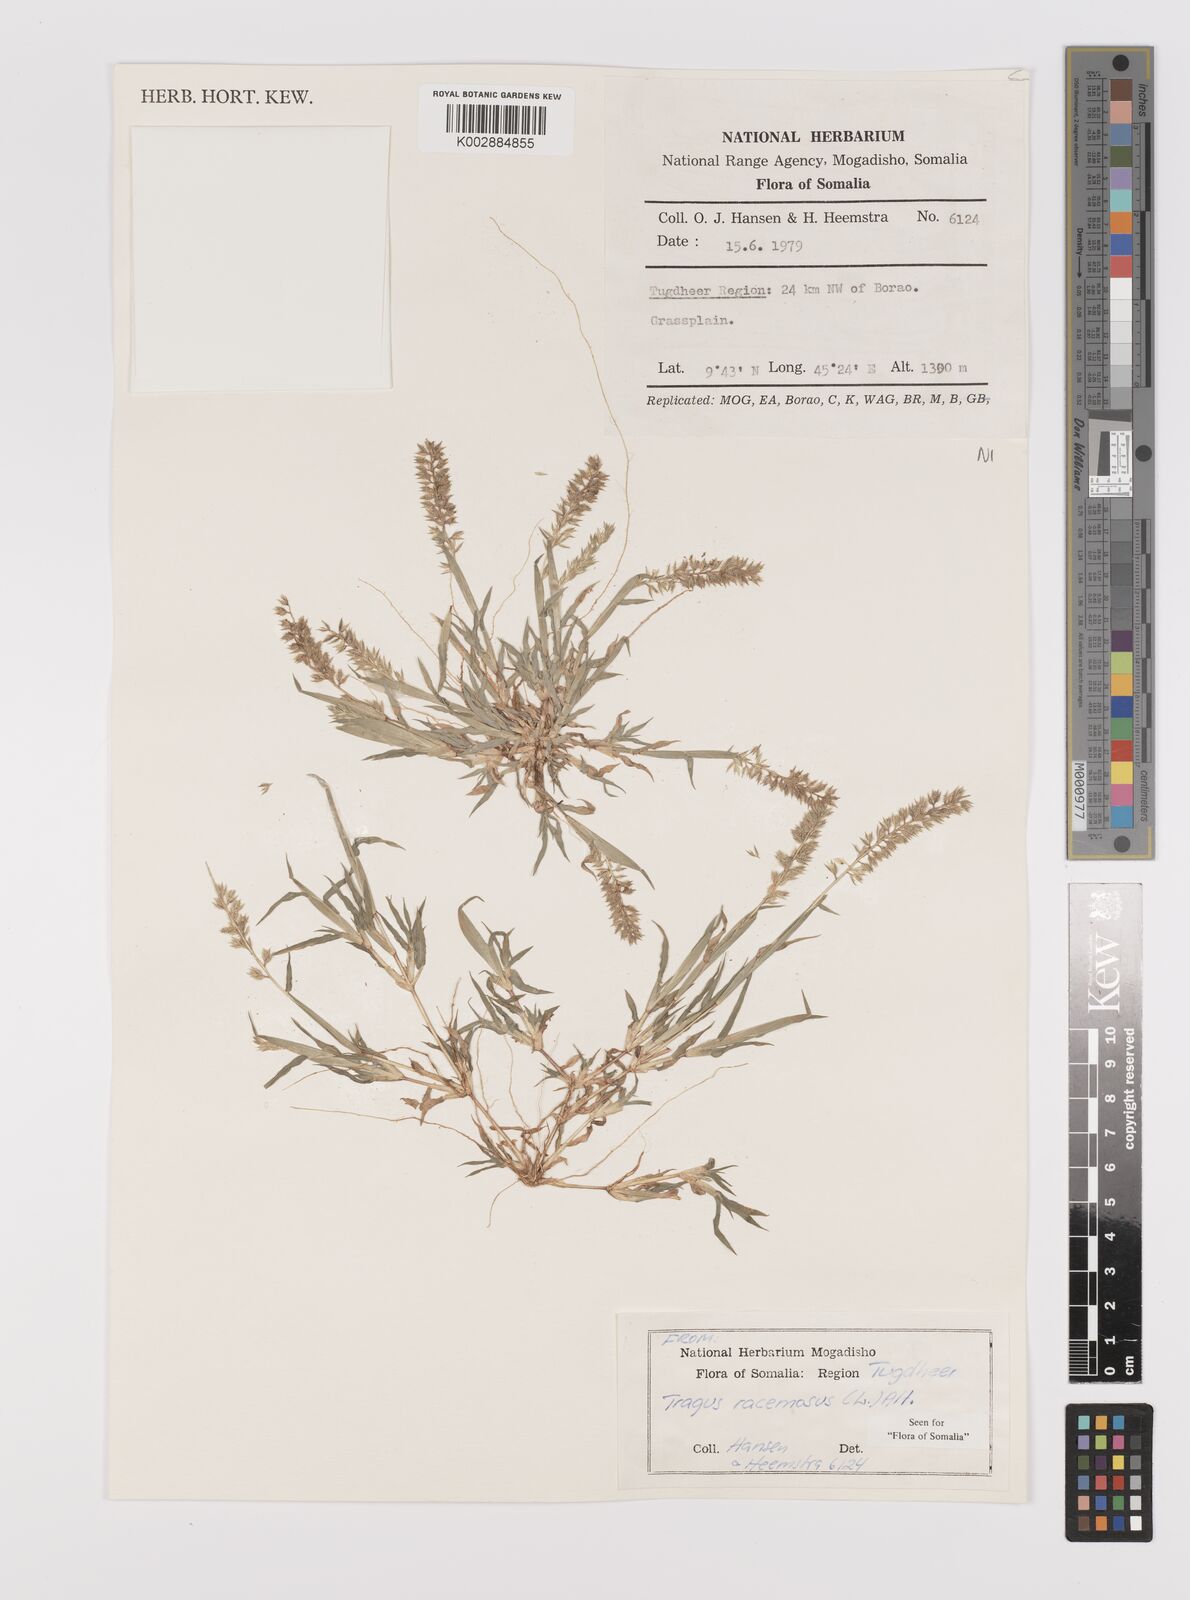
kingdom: Plantae
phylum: Tracheophyta
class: Liliopsida
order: Poales
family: Poaceae
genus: Tragus
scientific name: Tragus racemosus
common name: European bur-grass
